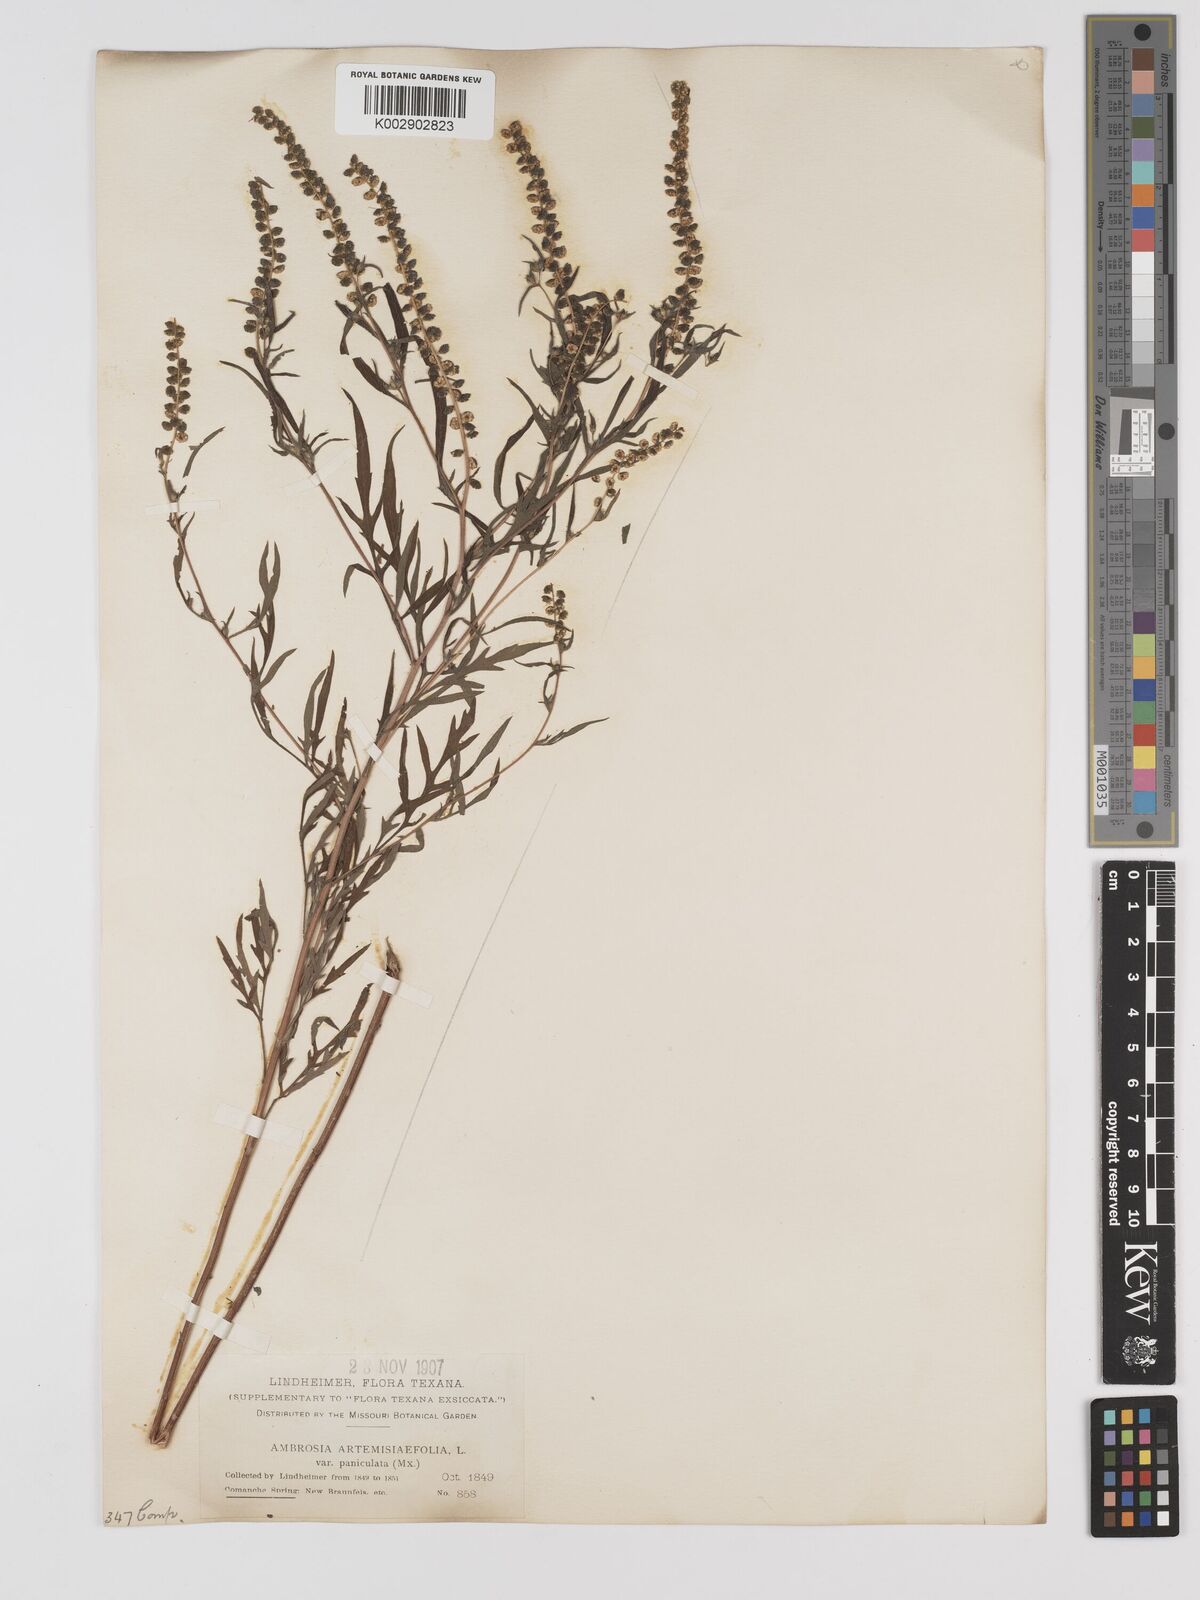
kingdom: Plantae
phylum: Tracheophyta
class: Magnoliopsida
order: Asterales
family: Asteraceae
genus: Ambrosia
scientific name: Ambrosia artemisiifolia
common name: Annual ragweed
